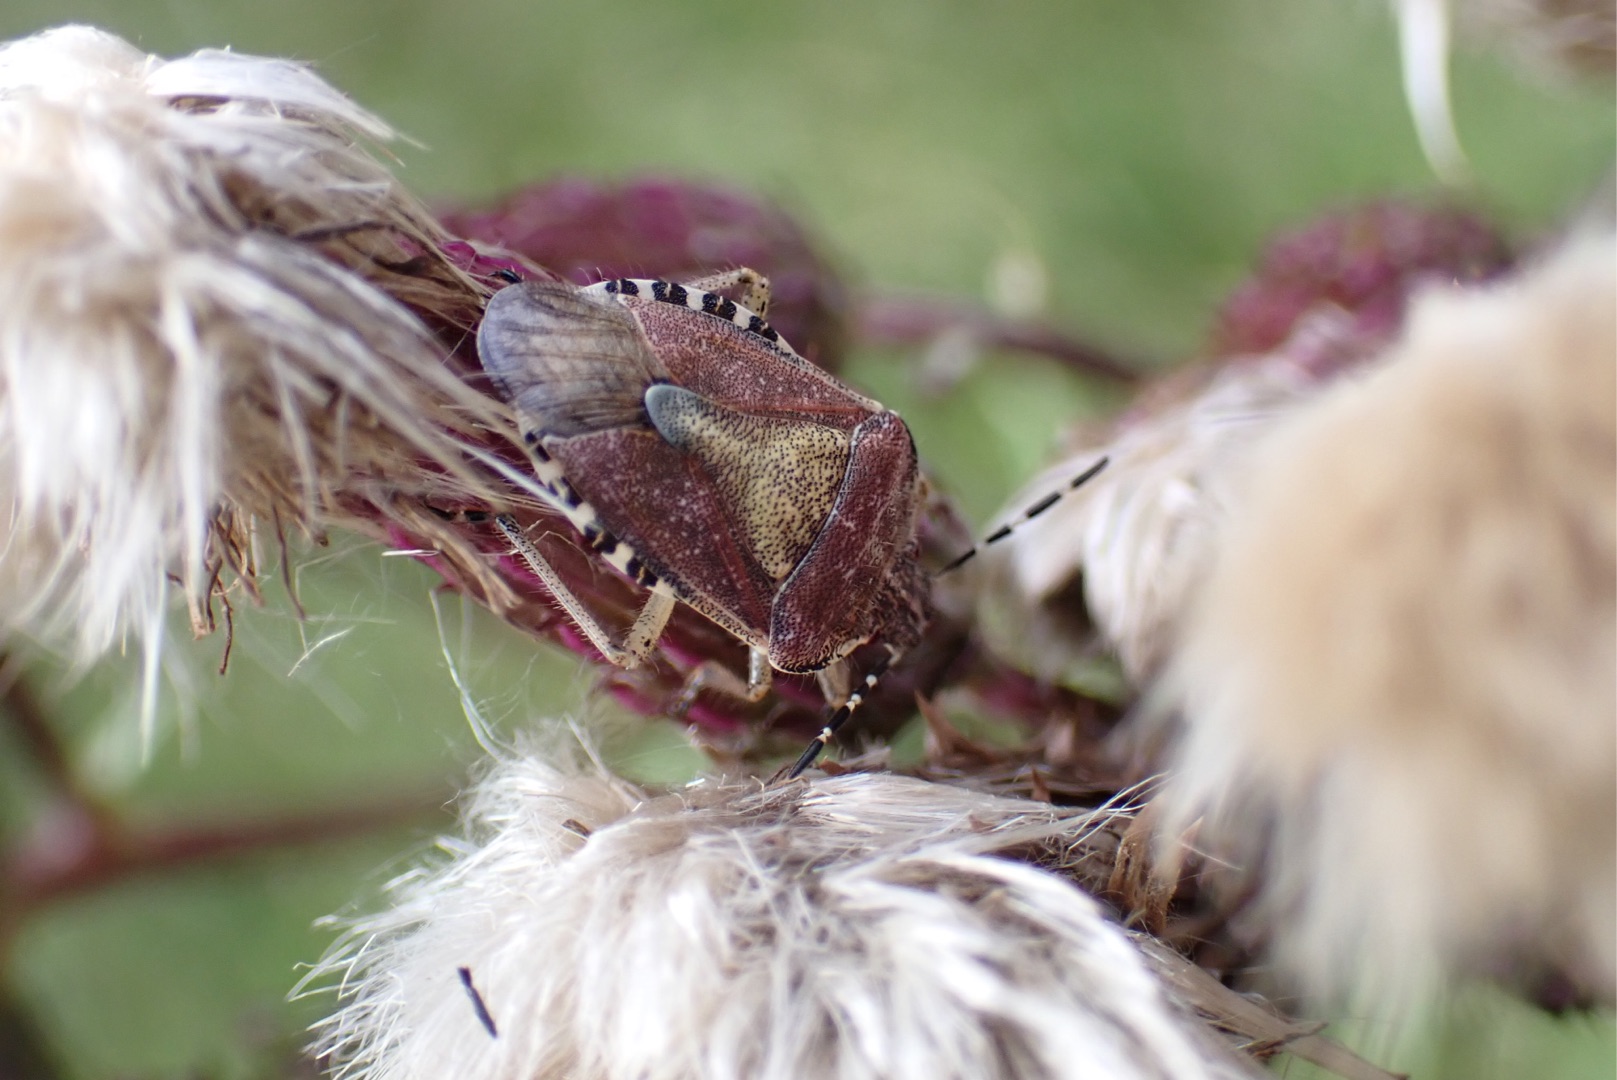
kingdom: Animalia
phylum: Arthropoda
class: Insecta
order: Hemiptera
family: Pentatomidae
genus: Dolycoris
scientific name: Dolycoris baccarum
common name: Almindelig bærtæge
